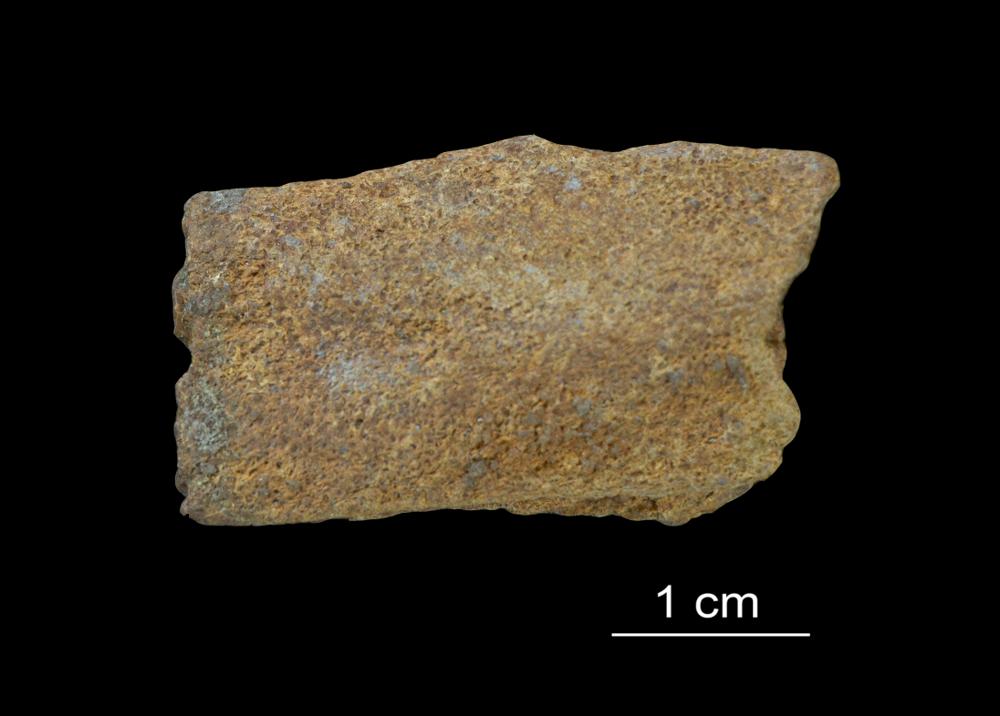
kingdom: Animalia
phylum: Chordata
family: Asterolepididae
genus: Asterolepis
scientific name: Asterolepis ornata
